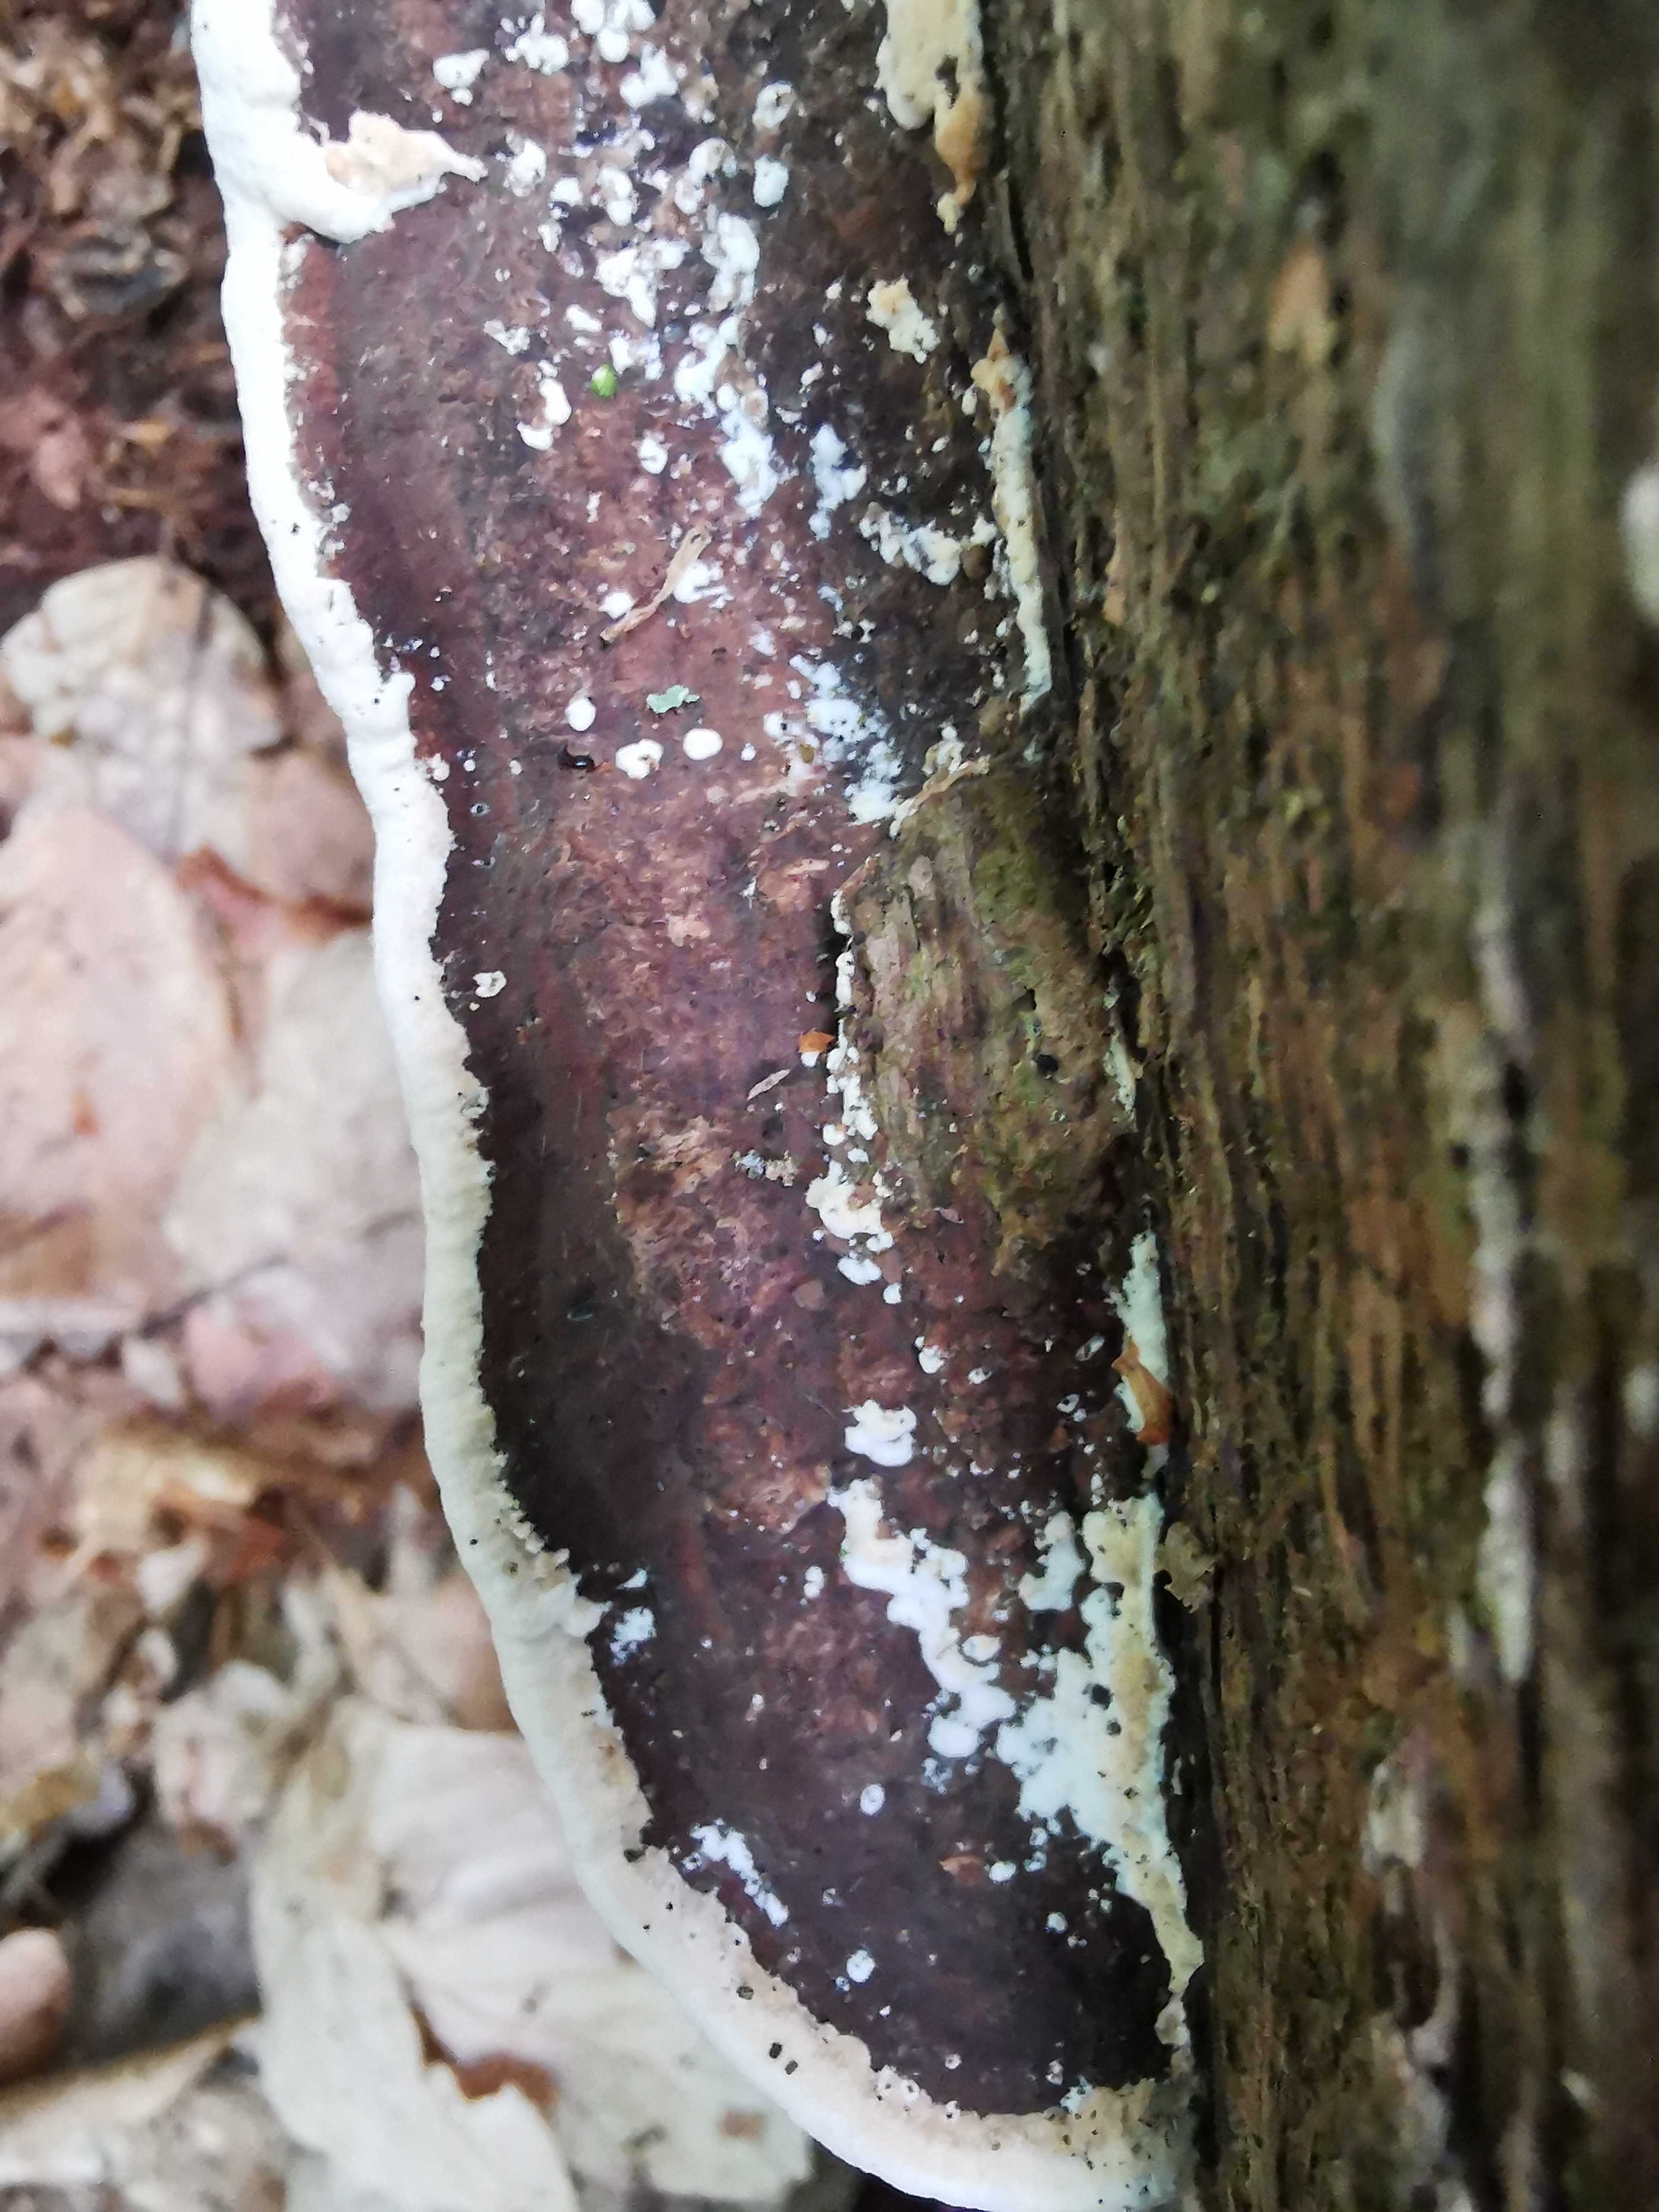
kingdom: Fungi
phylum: Basidiomycota
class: Agaricomycetes
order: Polyporales
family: Fomitopsidaceae
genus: Daedalea
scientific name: Daedalea quercina
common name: ege-labyrintsvamp
